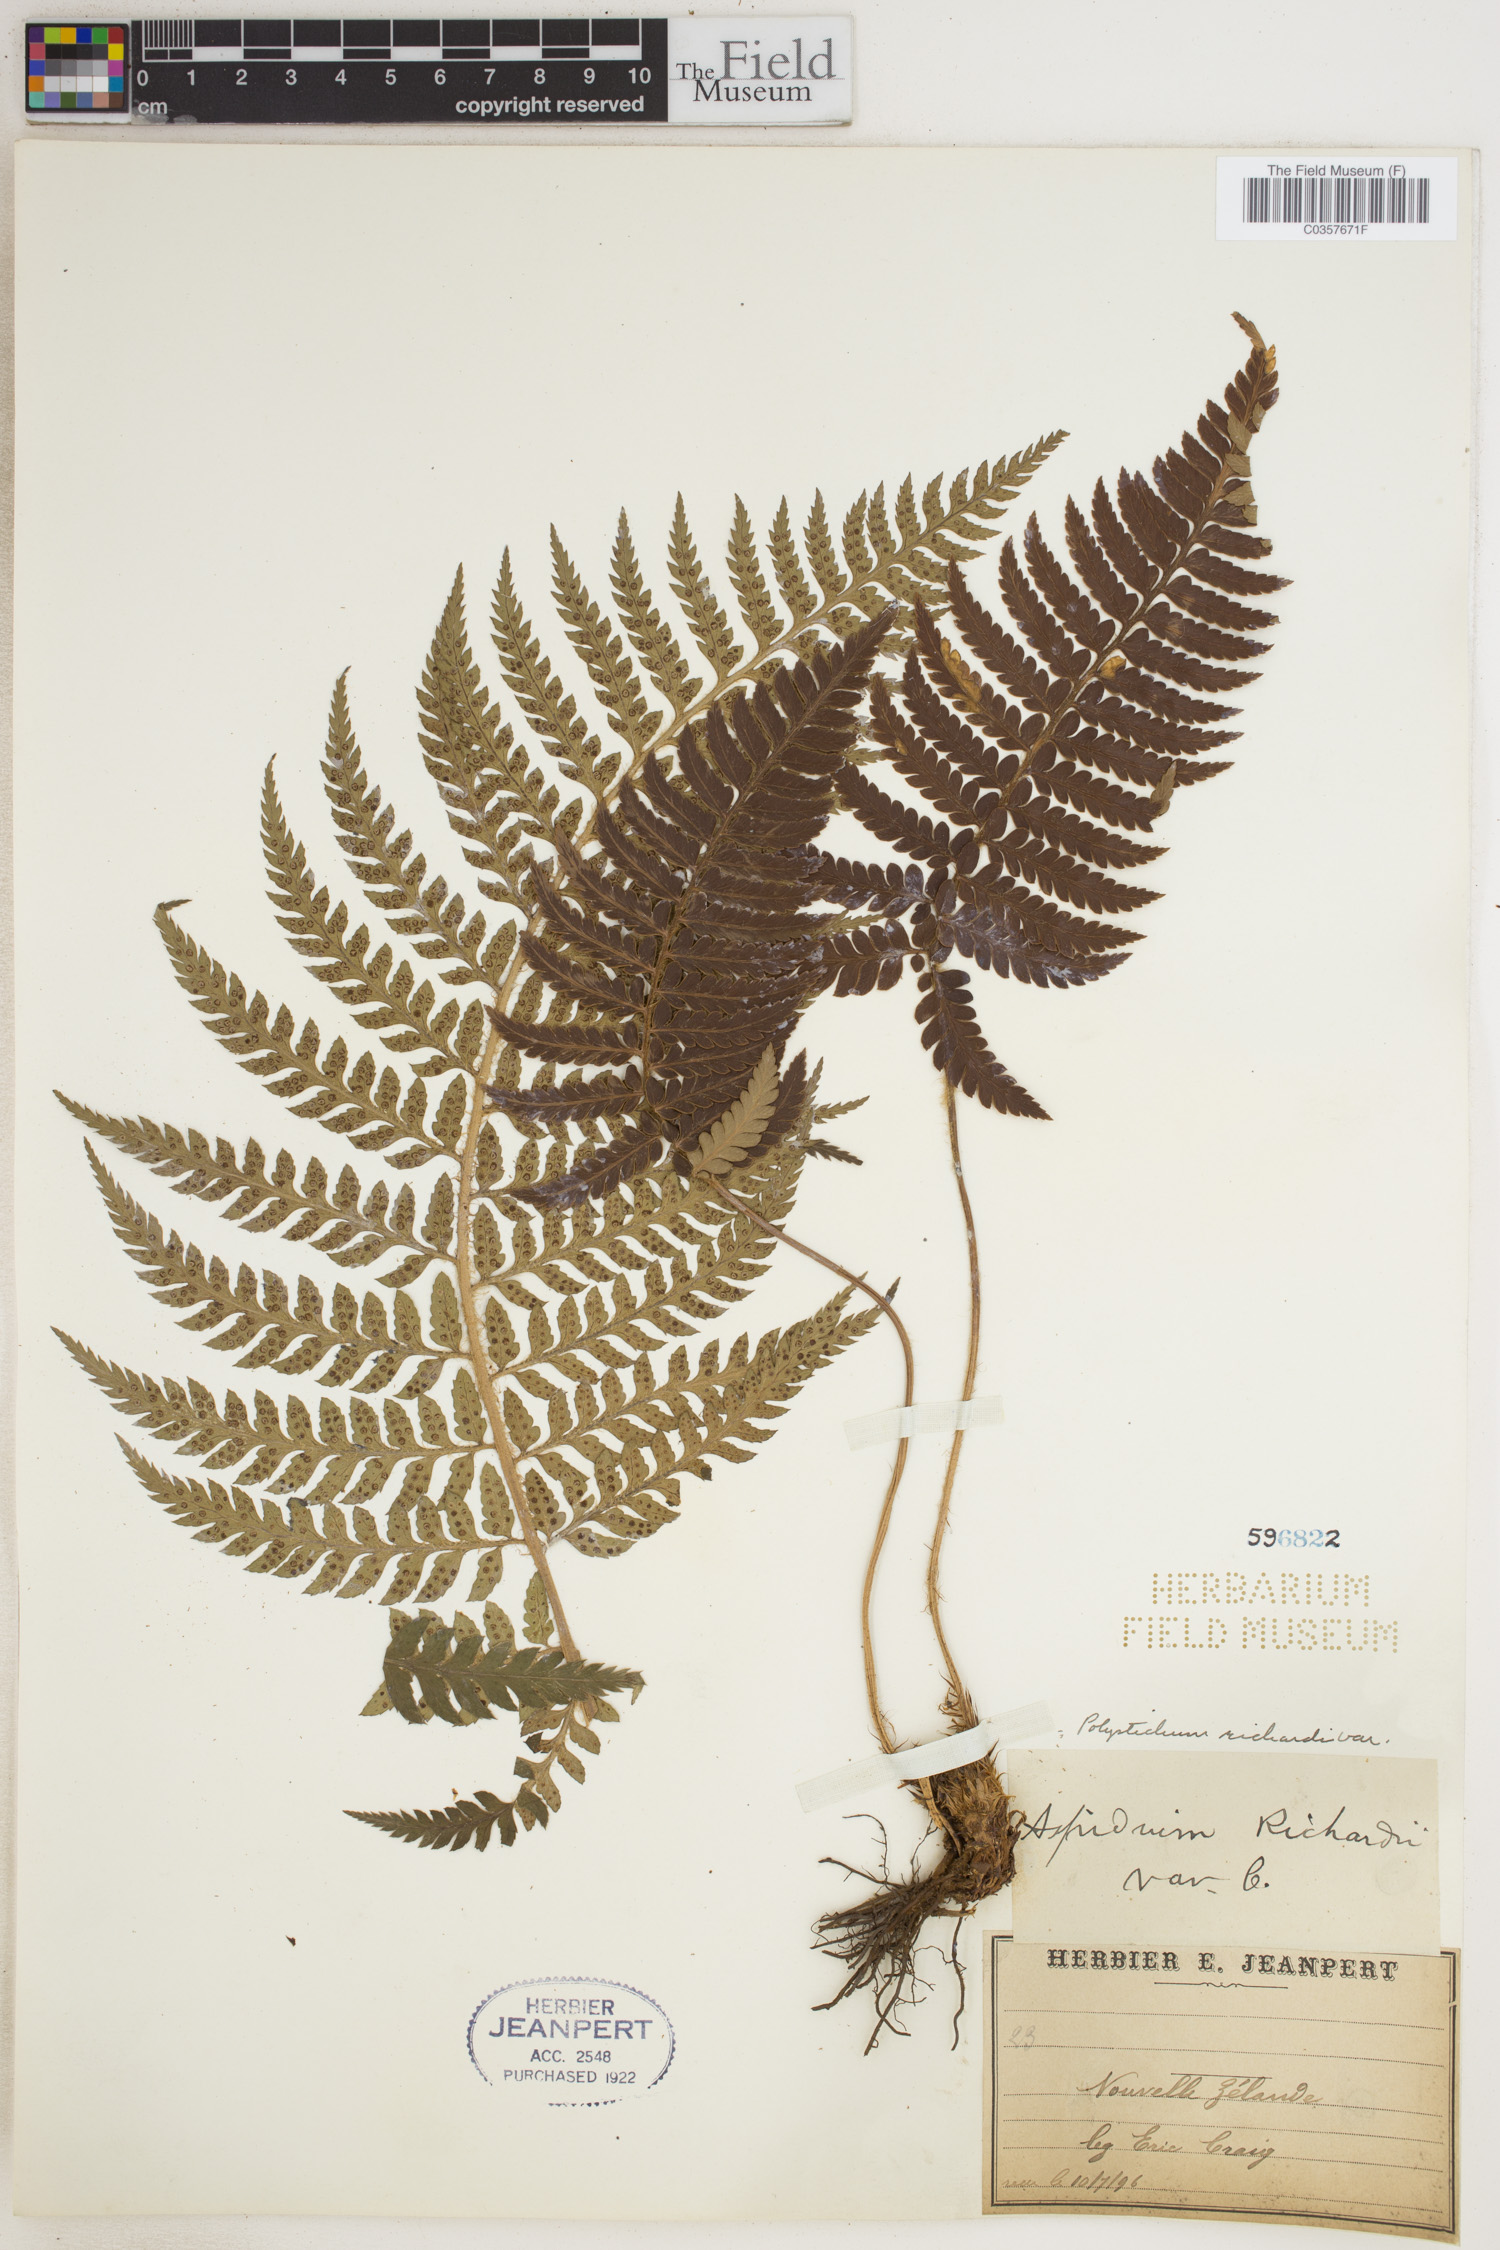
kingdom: Plantae
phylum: Tracheophyta
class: Polypodiopsida
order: Polypodiales
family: Dryopteridaceae
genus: Polystichum
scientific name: Polystichum neozelandicum
